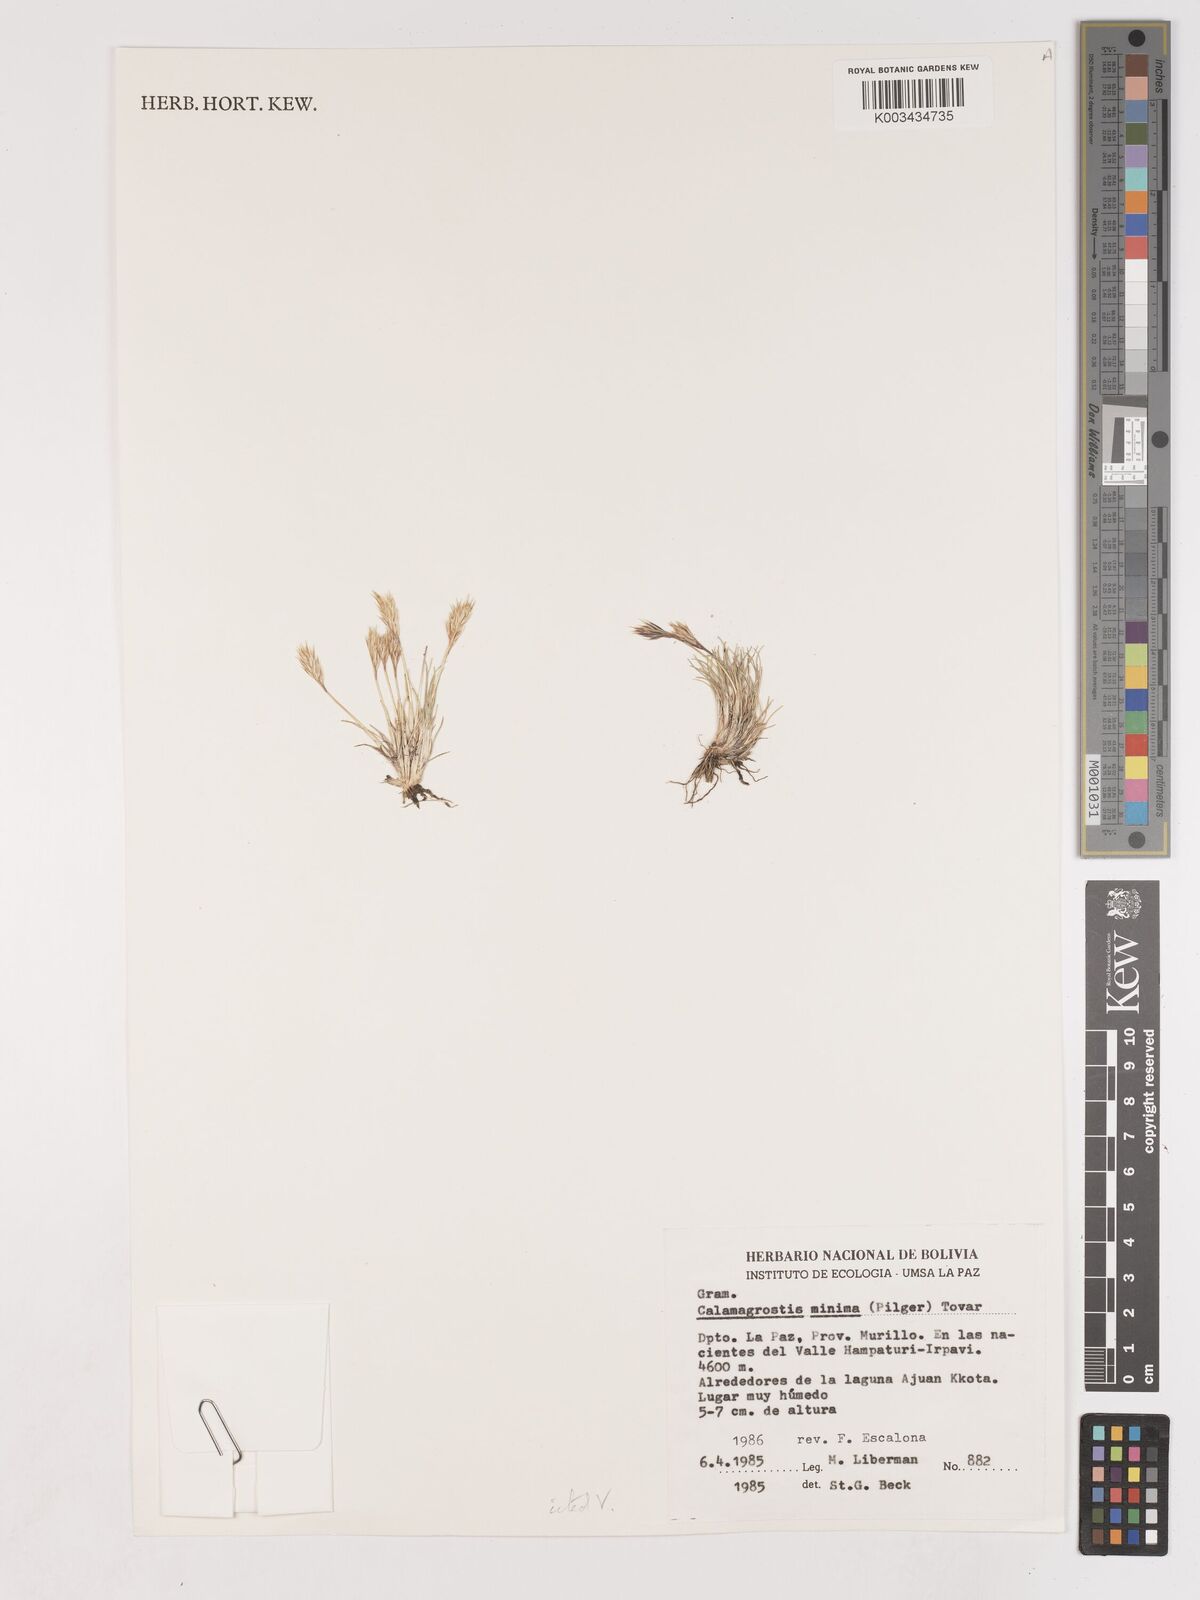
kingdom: Plantae
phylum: Tracheophyta
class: Liliopsida
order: Poales
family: Poaceae
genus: Cinnagrostis
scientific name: Cinnagrostis vicunarum
